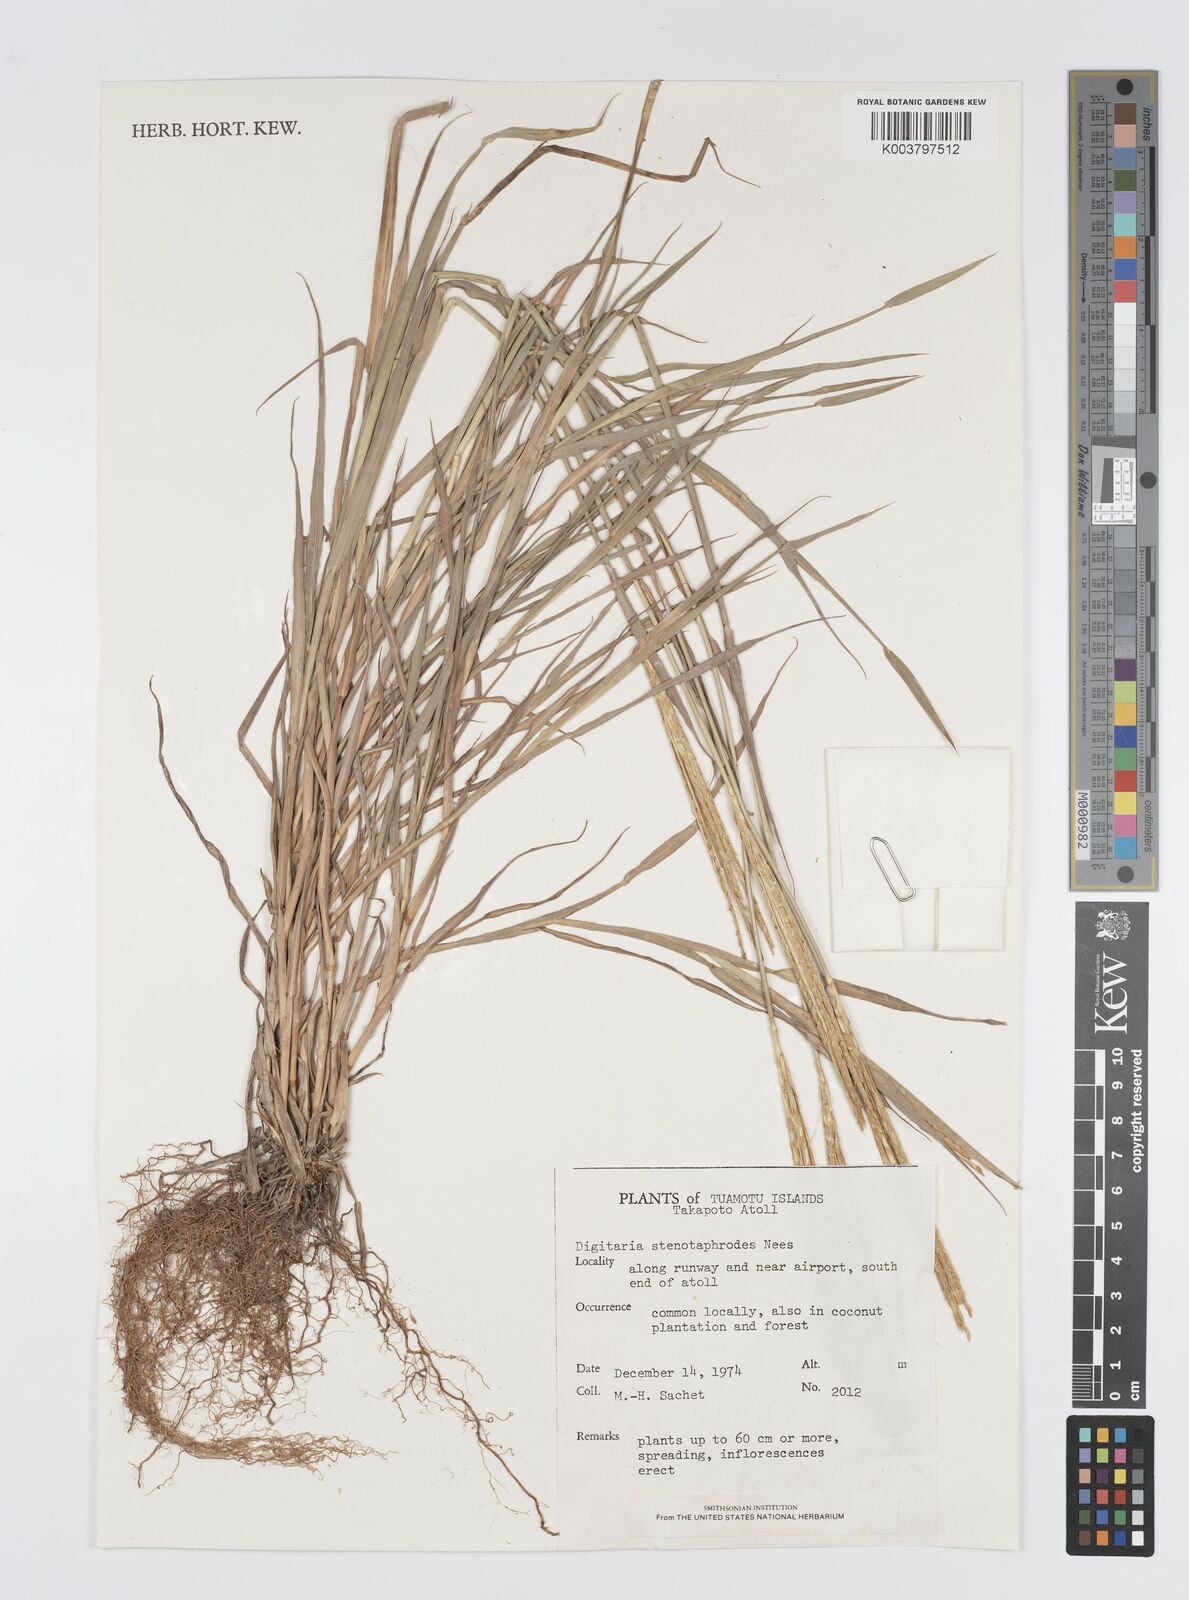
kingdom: Plantae
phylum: Tracheophyta
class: Liliopsida
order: Poales
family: Poaceae
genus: Digitaria
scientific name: Digitaria stenotaphrodes
